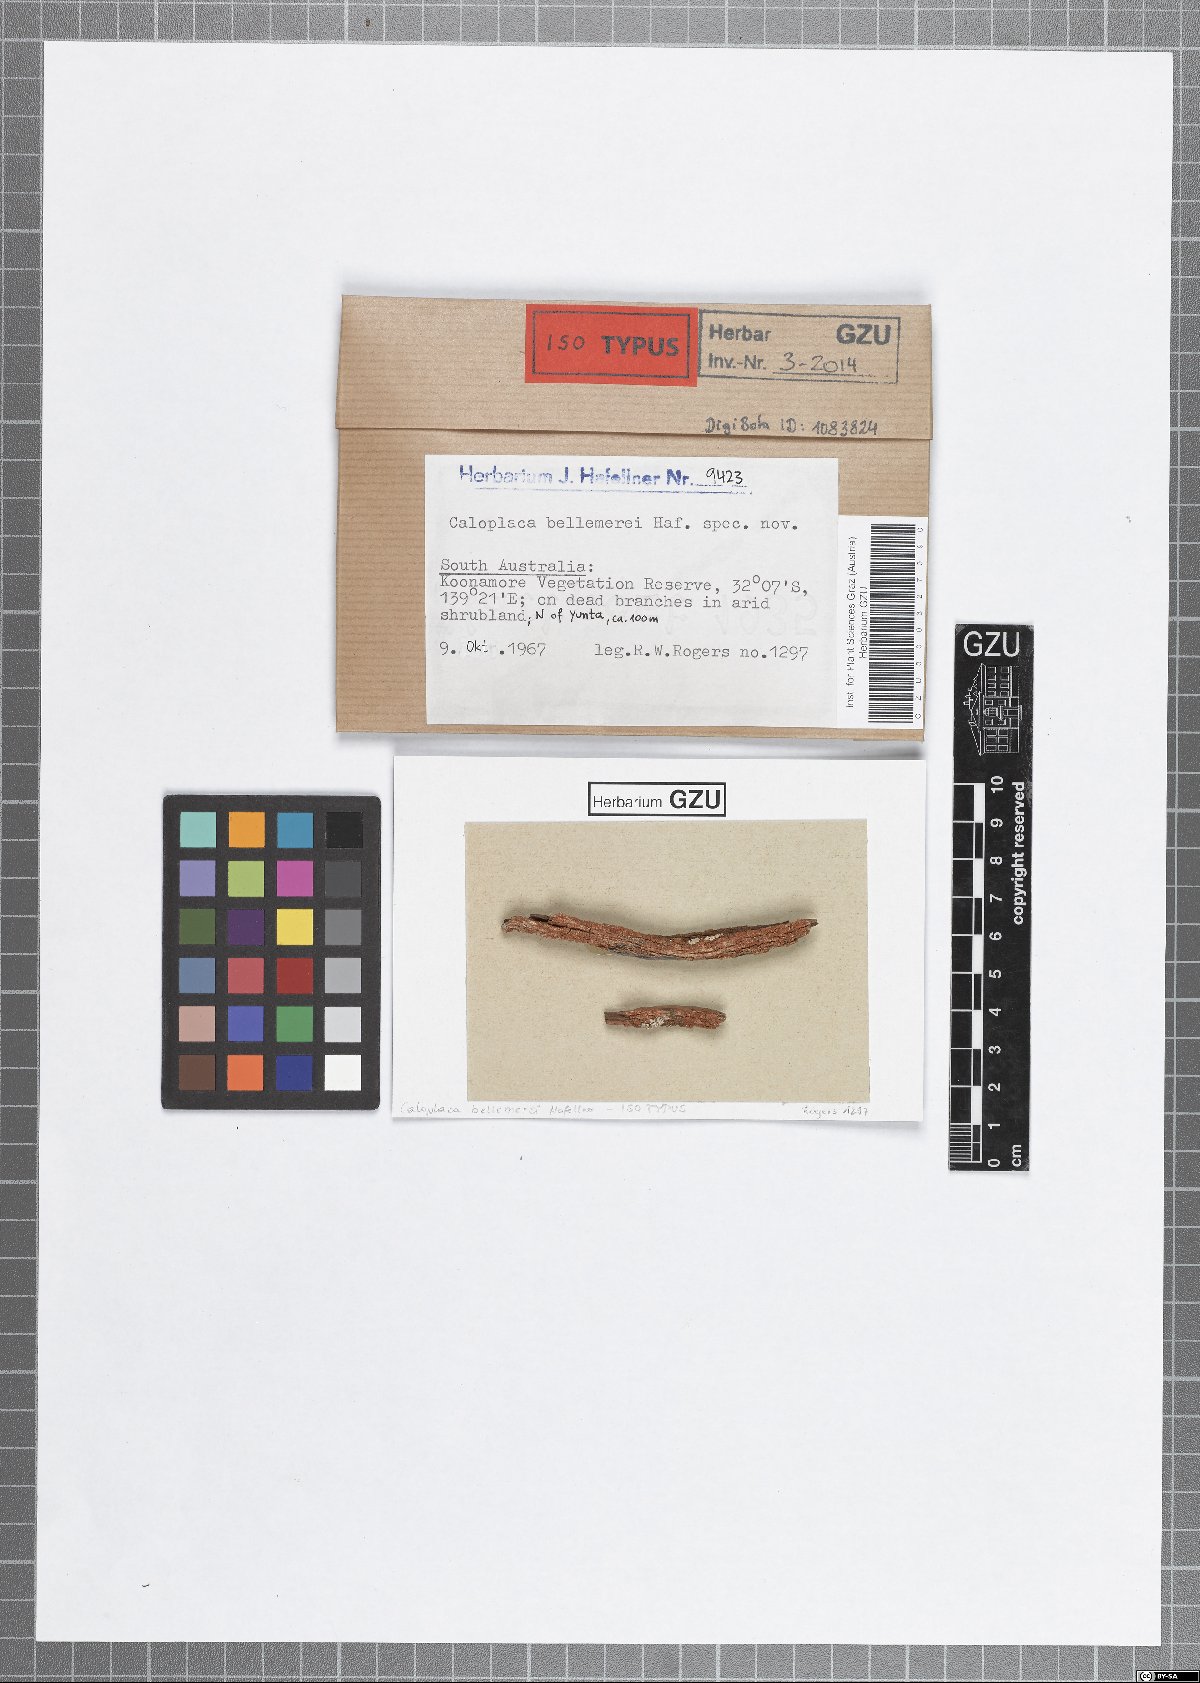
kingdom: Fungi
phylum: Ascomycota
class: Lecanoromycetes
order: Teloschistales
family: Teloschistaceae
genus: Caloplaca
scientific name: Caloplaca bellemerei
